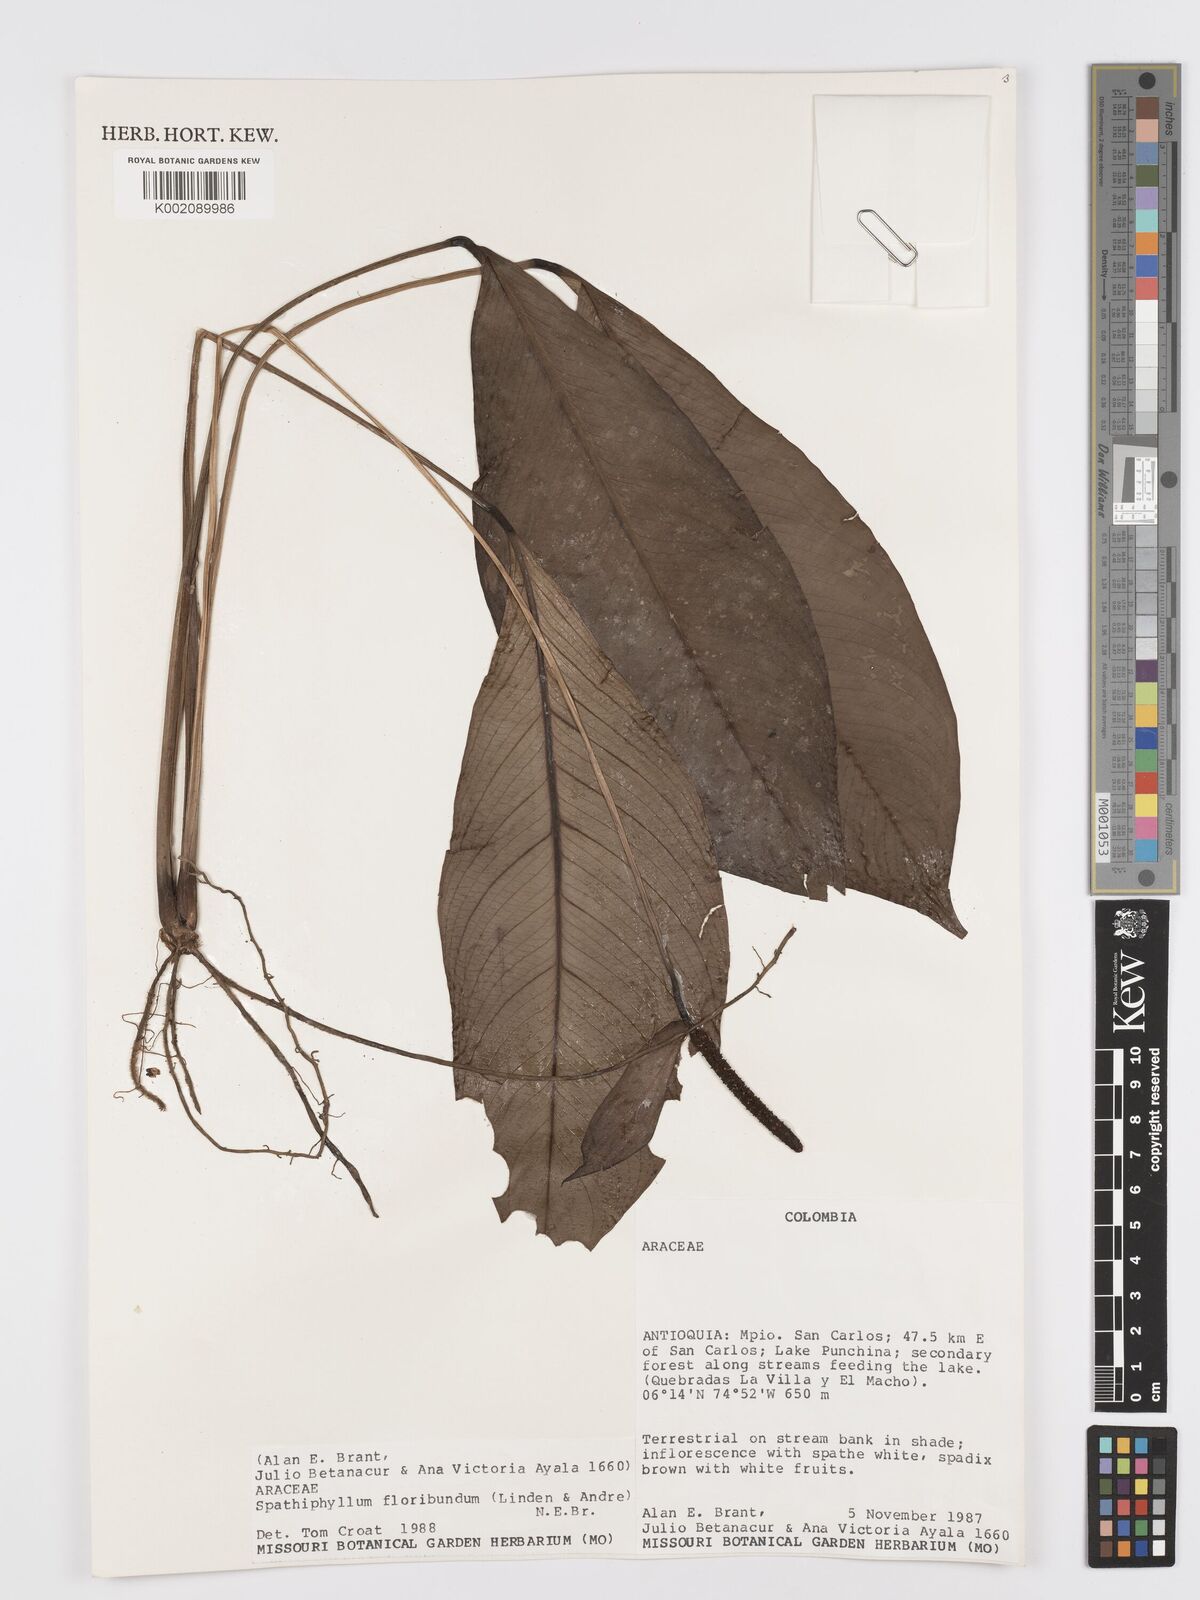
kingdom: Plantae
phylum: Tracheophyta
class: Liliopsida
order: Alismatales
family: Araceae
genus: Spathiphyllum
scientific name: Spathiphyllum floribundum
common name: Peace-lily
